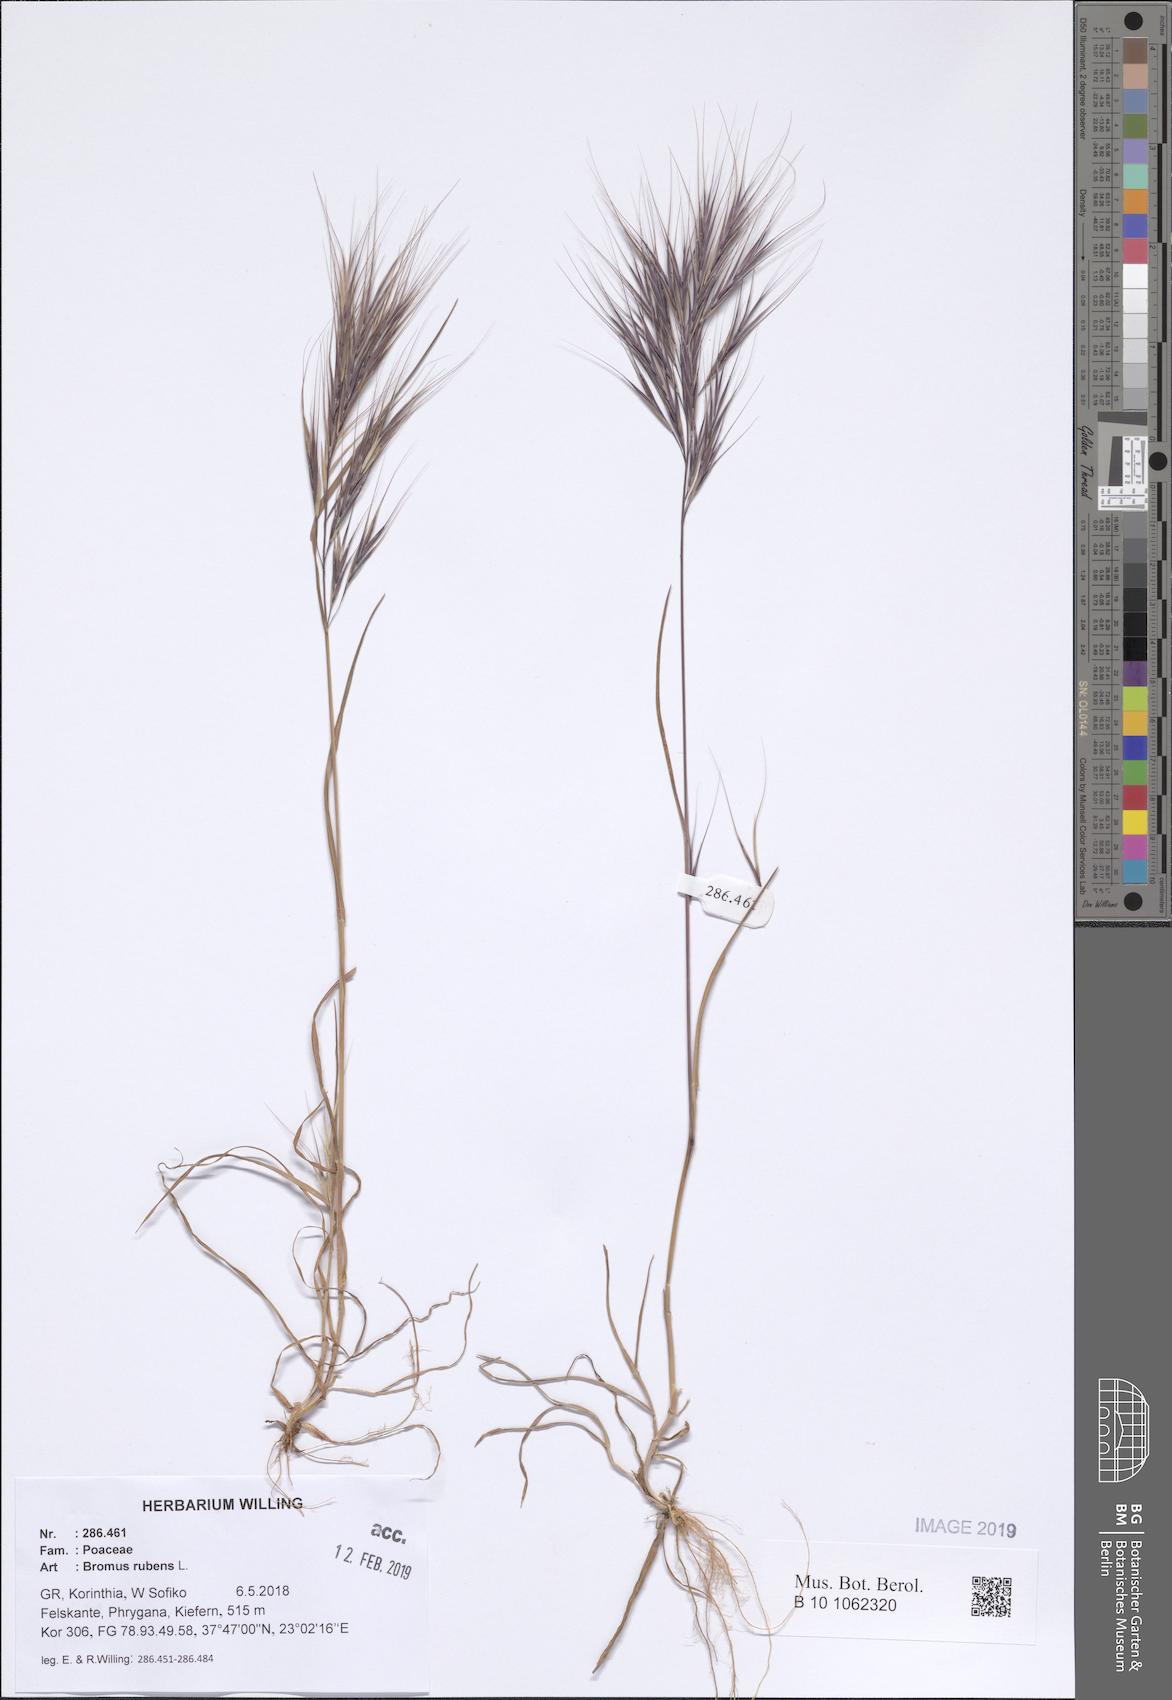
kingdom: Plantae
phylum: Tracheophyta
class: Liliopsida
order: Poales
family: Poaceae
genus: Bromus
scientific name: Bromus rubens
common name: Red brome
